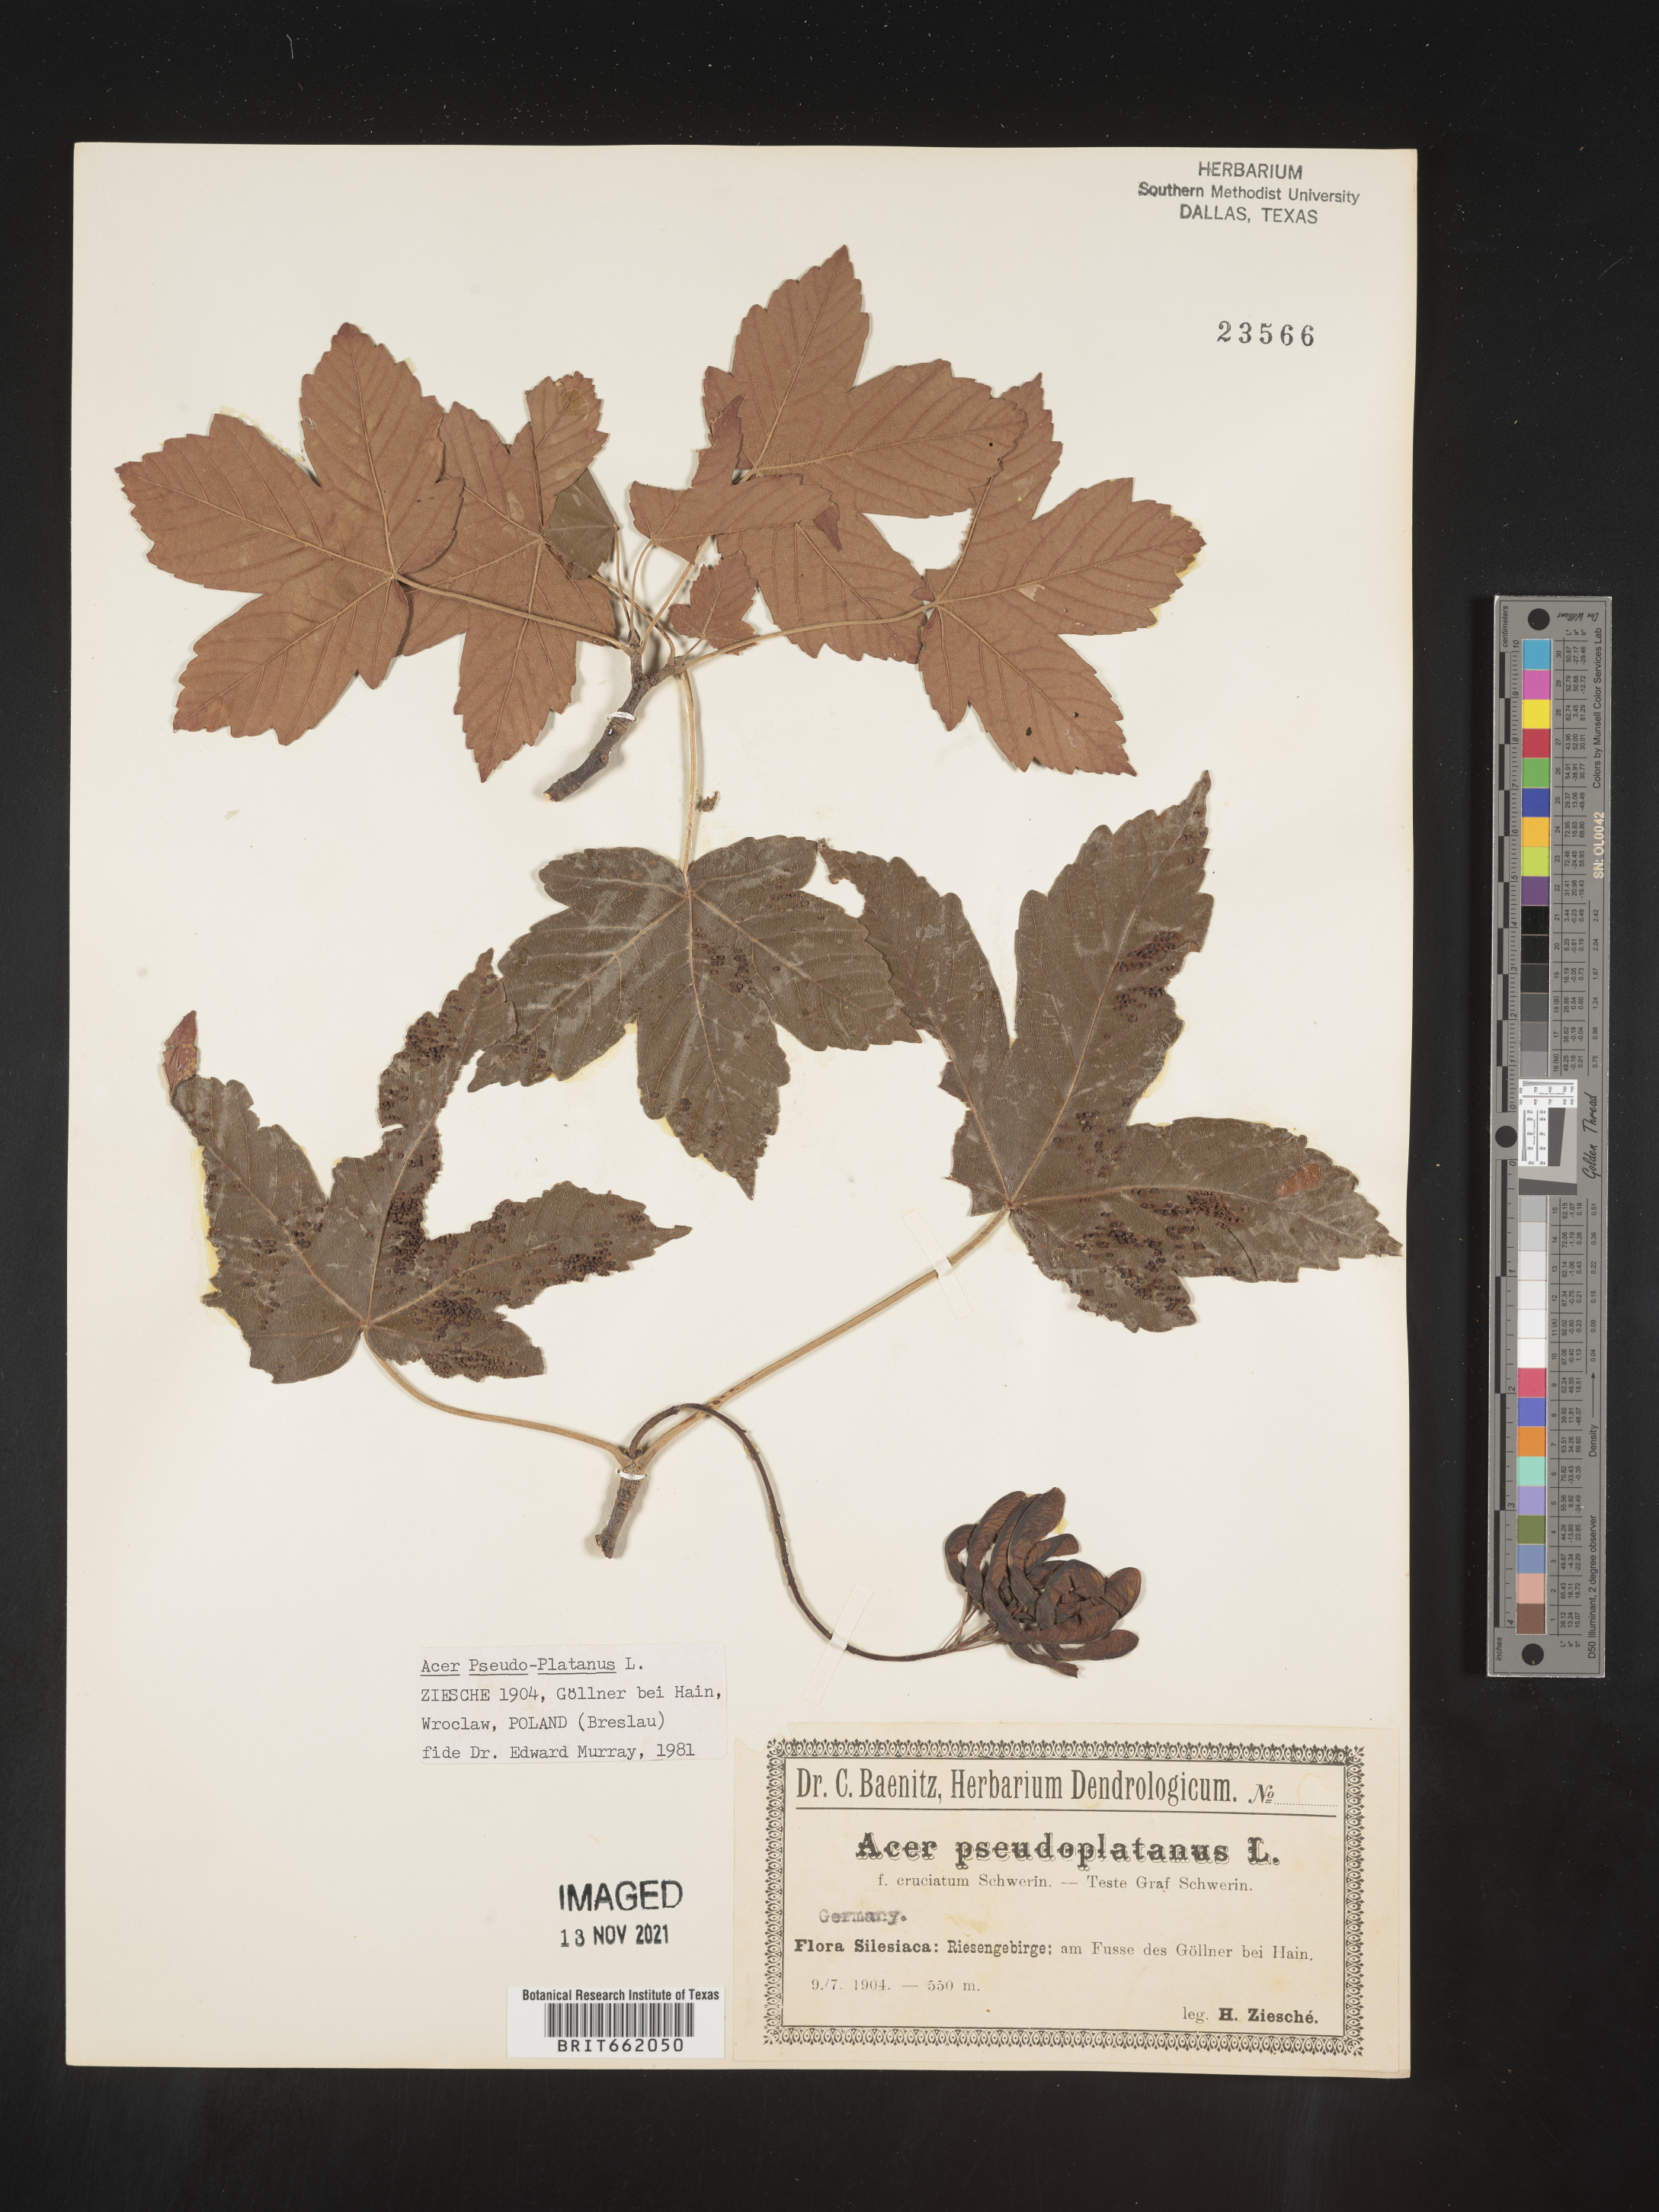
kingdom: Plantae
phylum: Tracheophyta
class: Magnoliopsida
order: Sapindales
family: Sapindaceae
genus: Acer
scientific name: Acer
